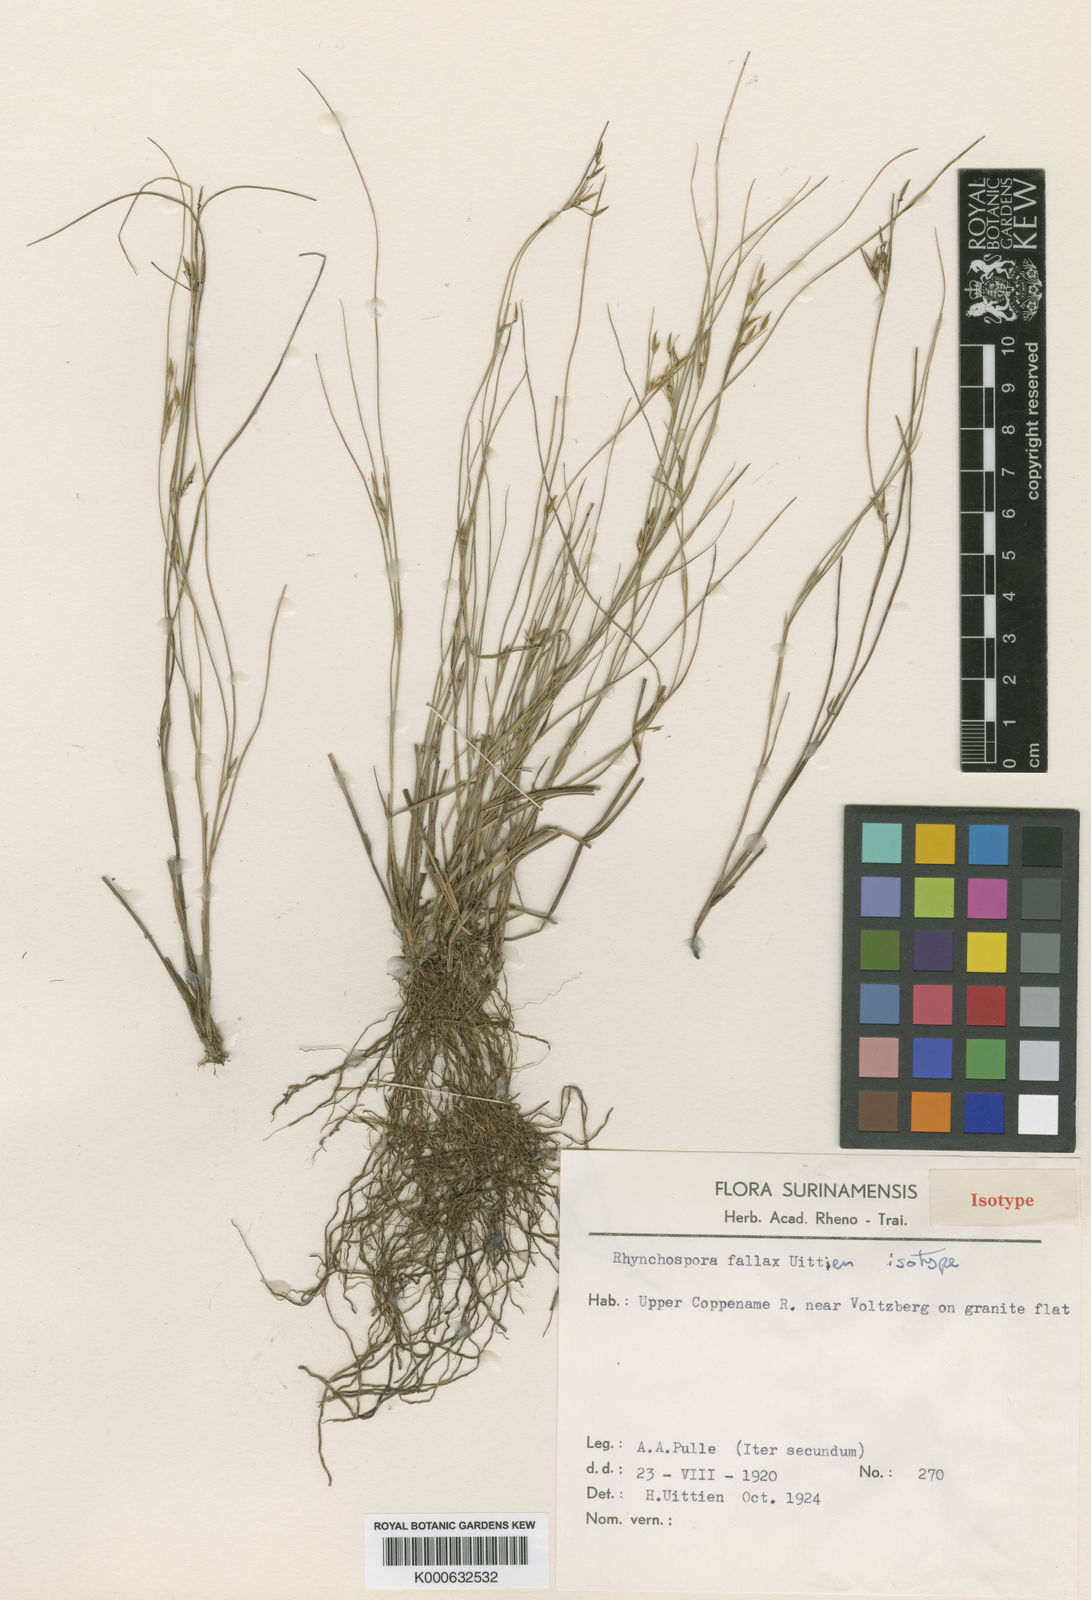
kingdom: Plantae
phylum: Tracheophyta
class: Liliopsida
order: Poales
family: Cyperaceae
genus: Rhynchospora
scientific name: Rhynchospora fallax
